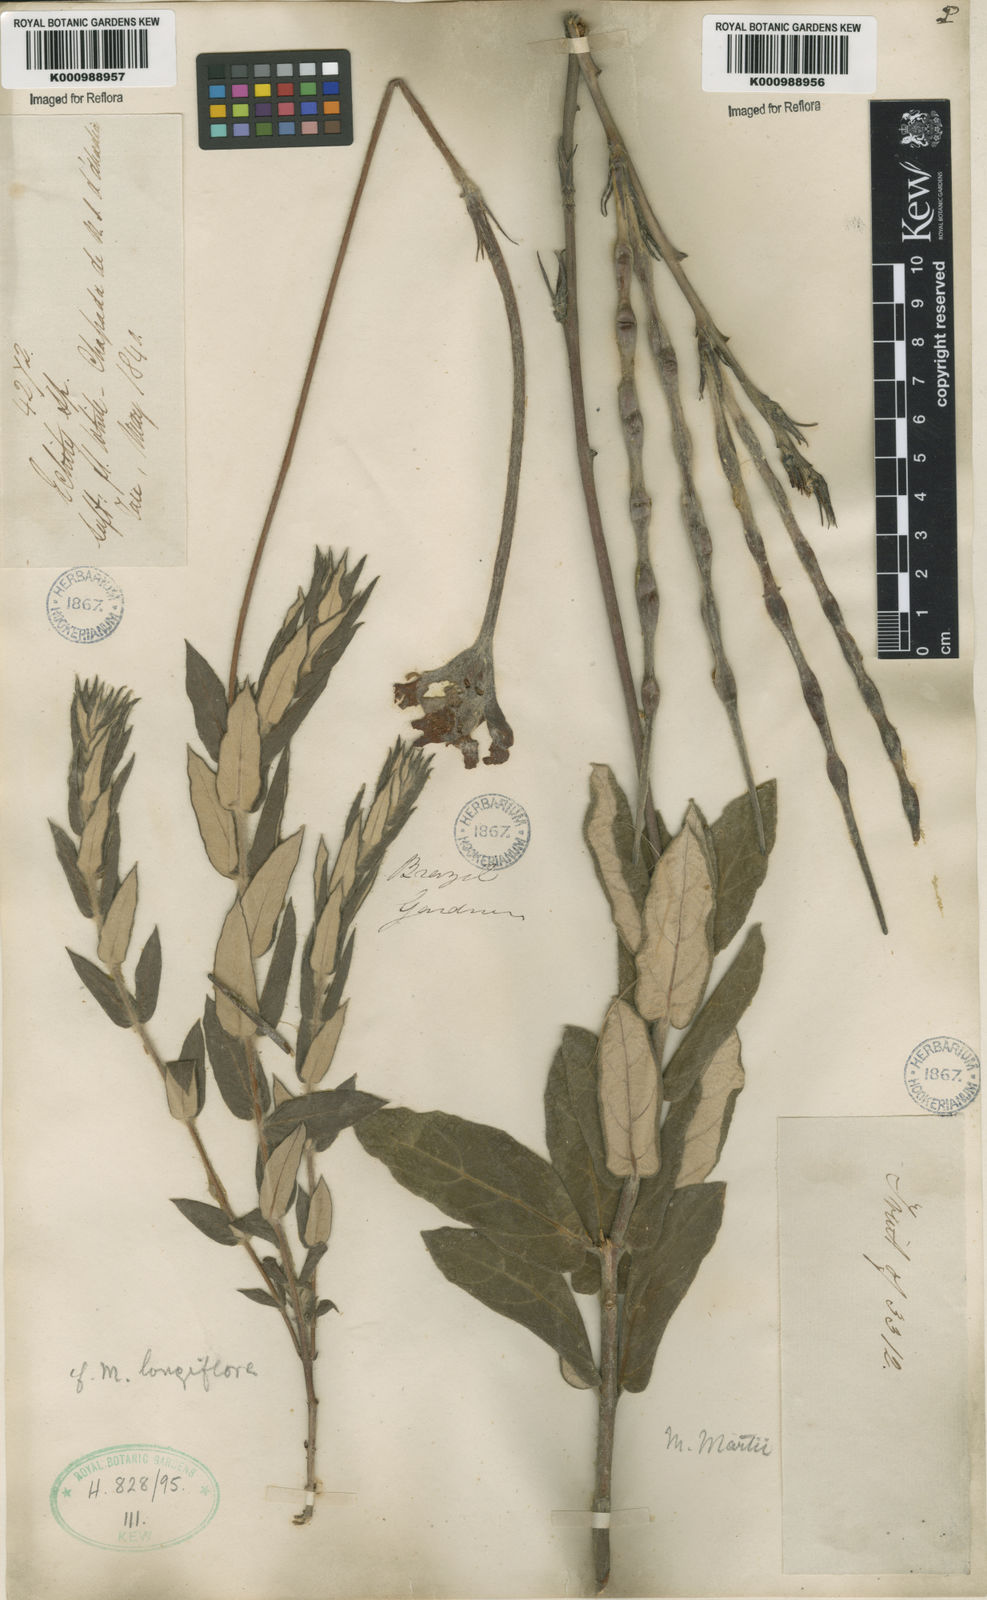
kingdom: Plantae
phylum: Tracheophyta
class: Magnoliopsida
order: Gentianales
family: Apocynaceae
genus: Mandevilla
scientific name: Mandevilla longiflora
